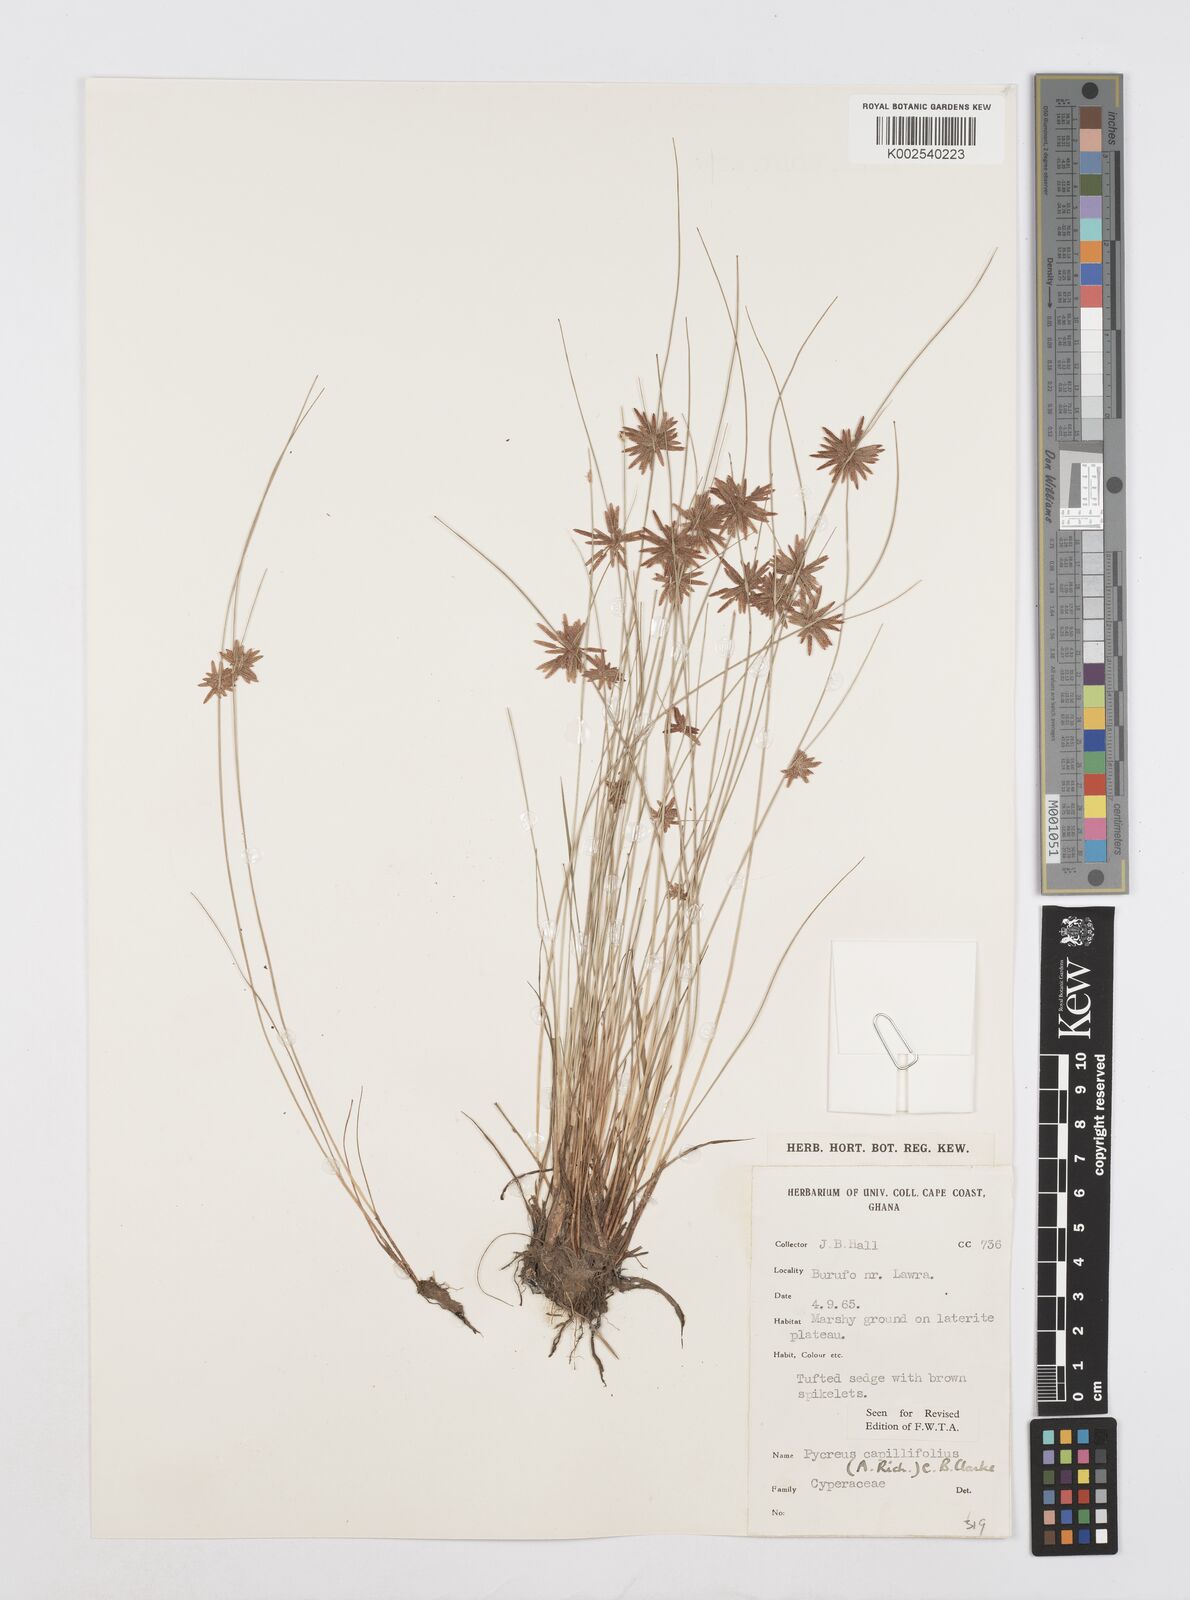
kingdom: Plantae
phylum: Tracheophyta
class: Liliopsida
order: Poales
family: Cyperaceae
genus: Cyperus
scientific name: Cyperus capillifolius
